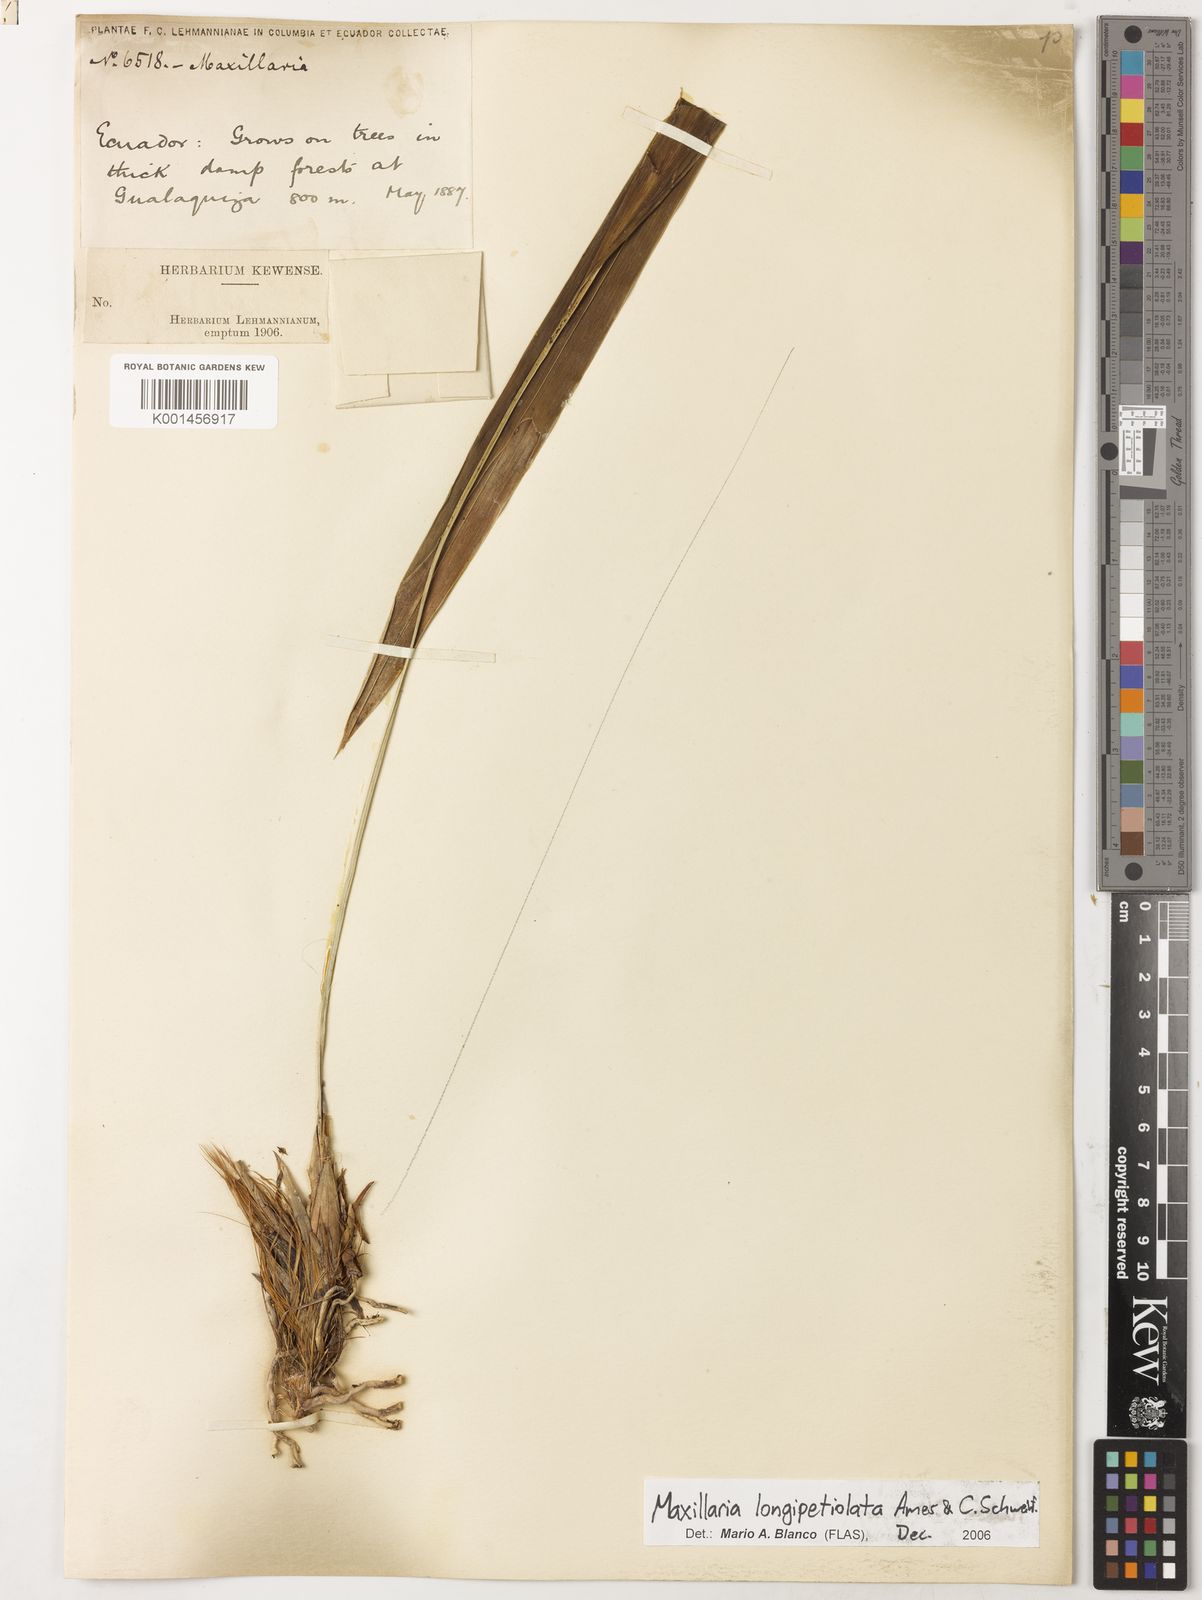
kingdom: Plantae
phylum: Tracheophyta
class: Liliopsida
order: Asparagales
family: Orchidaceae
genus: Maxillaria
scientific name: Maxillaria longipetiolata
